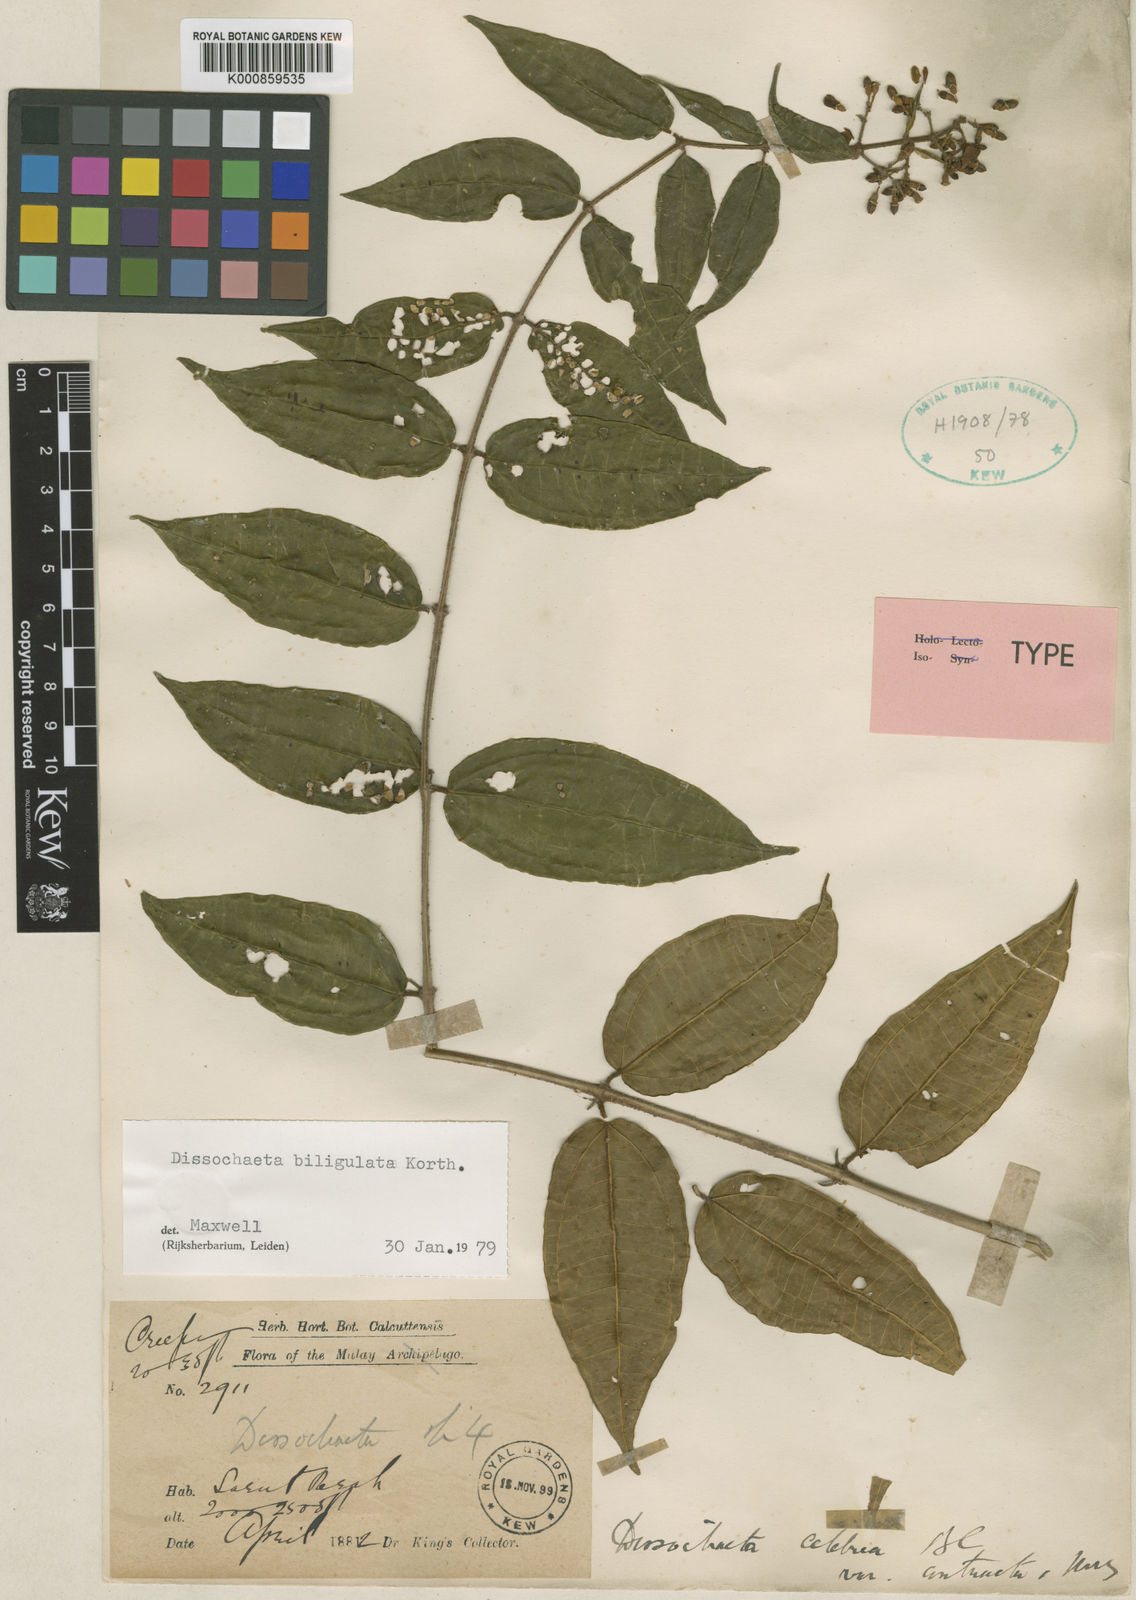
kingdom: Plantae
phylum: Tracheophyta
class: Magnoliopsida
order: Myrtales
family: Melastomataceae
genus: Dissochaeta
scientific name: Dissochaeta biligulata
